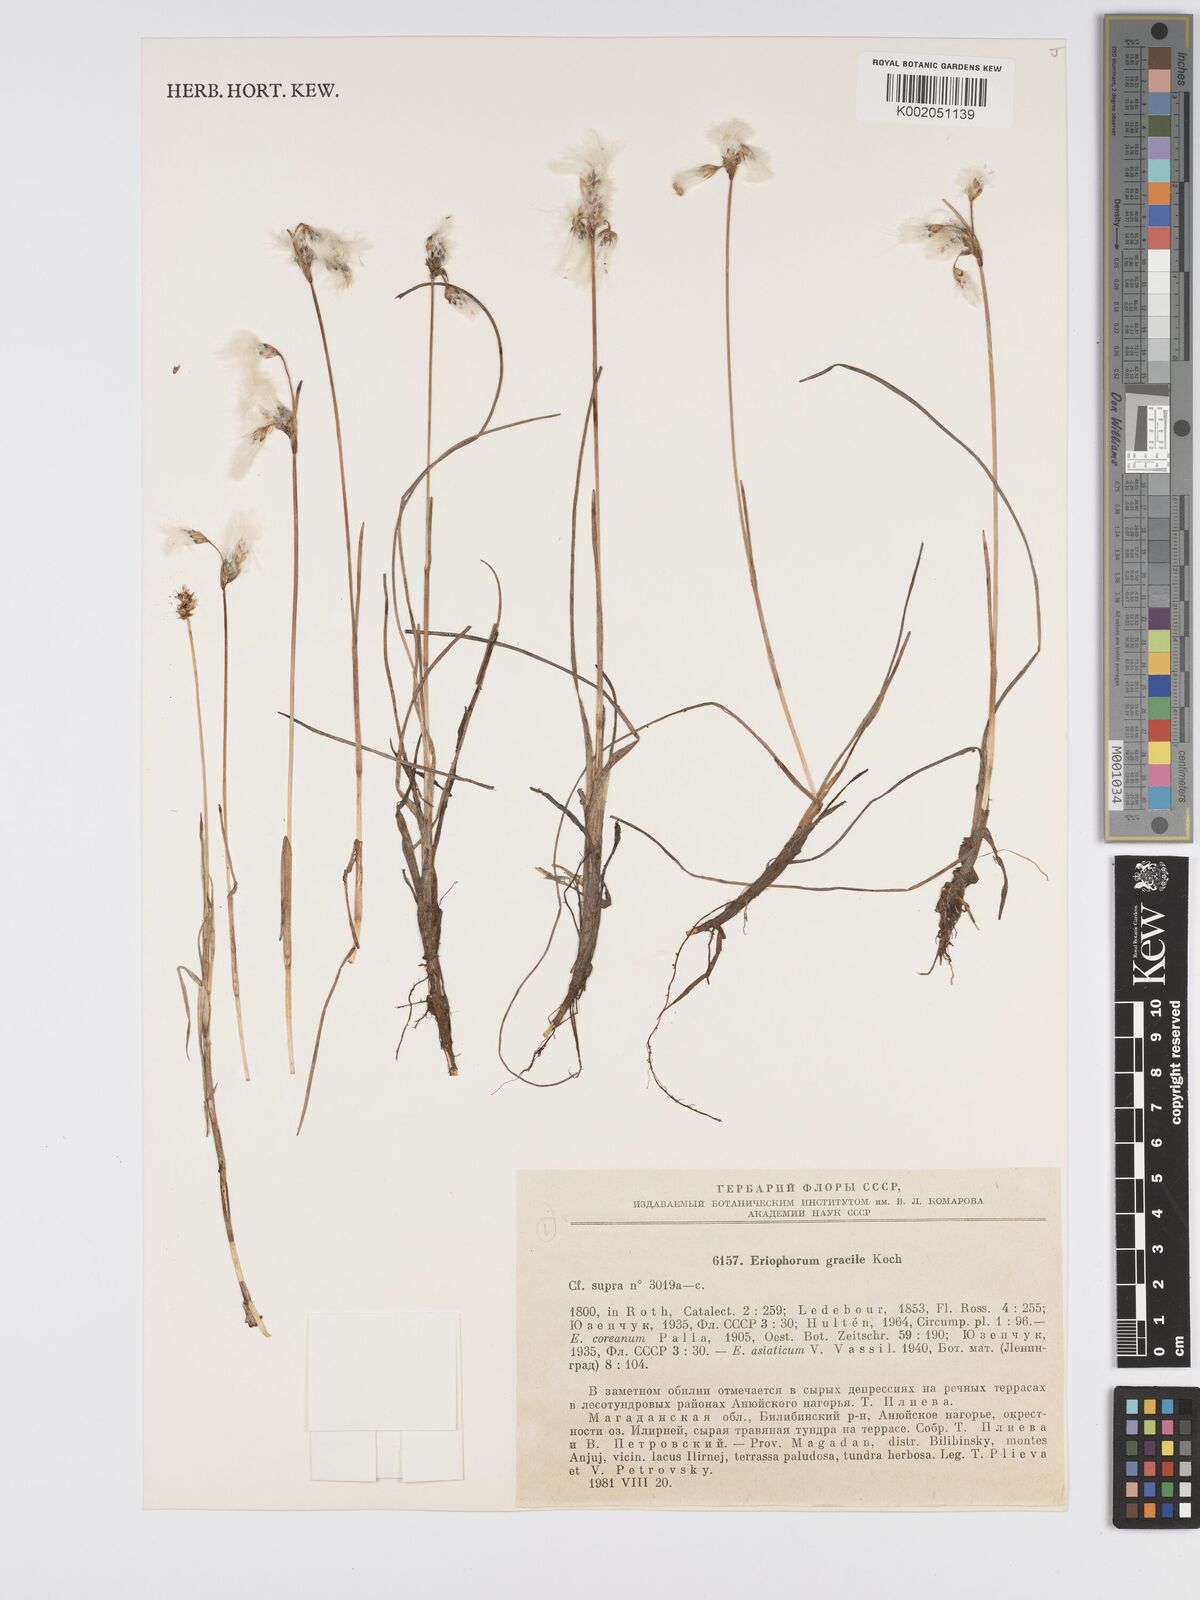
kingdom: Plantae
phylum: Tracheophyta
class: Liliopsida
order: Poales
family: Cyperaceae
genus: Eriophorum
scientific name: Eriophorum gracile
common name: Slender cottongrass
